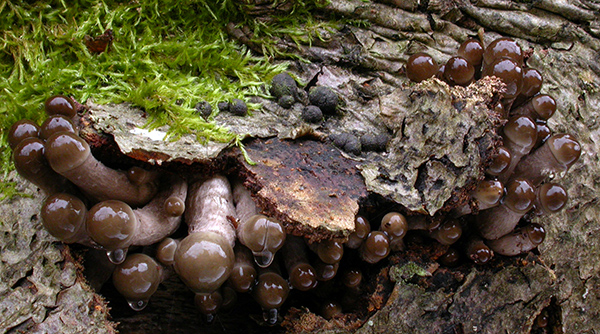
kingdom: Fungi
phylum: Basidiomycota
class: Agaricomycetes
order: Agaricales
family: Physalacriaceae
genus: Mucidula
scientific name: Mucidula mucida
